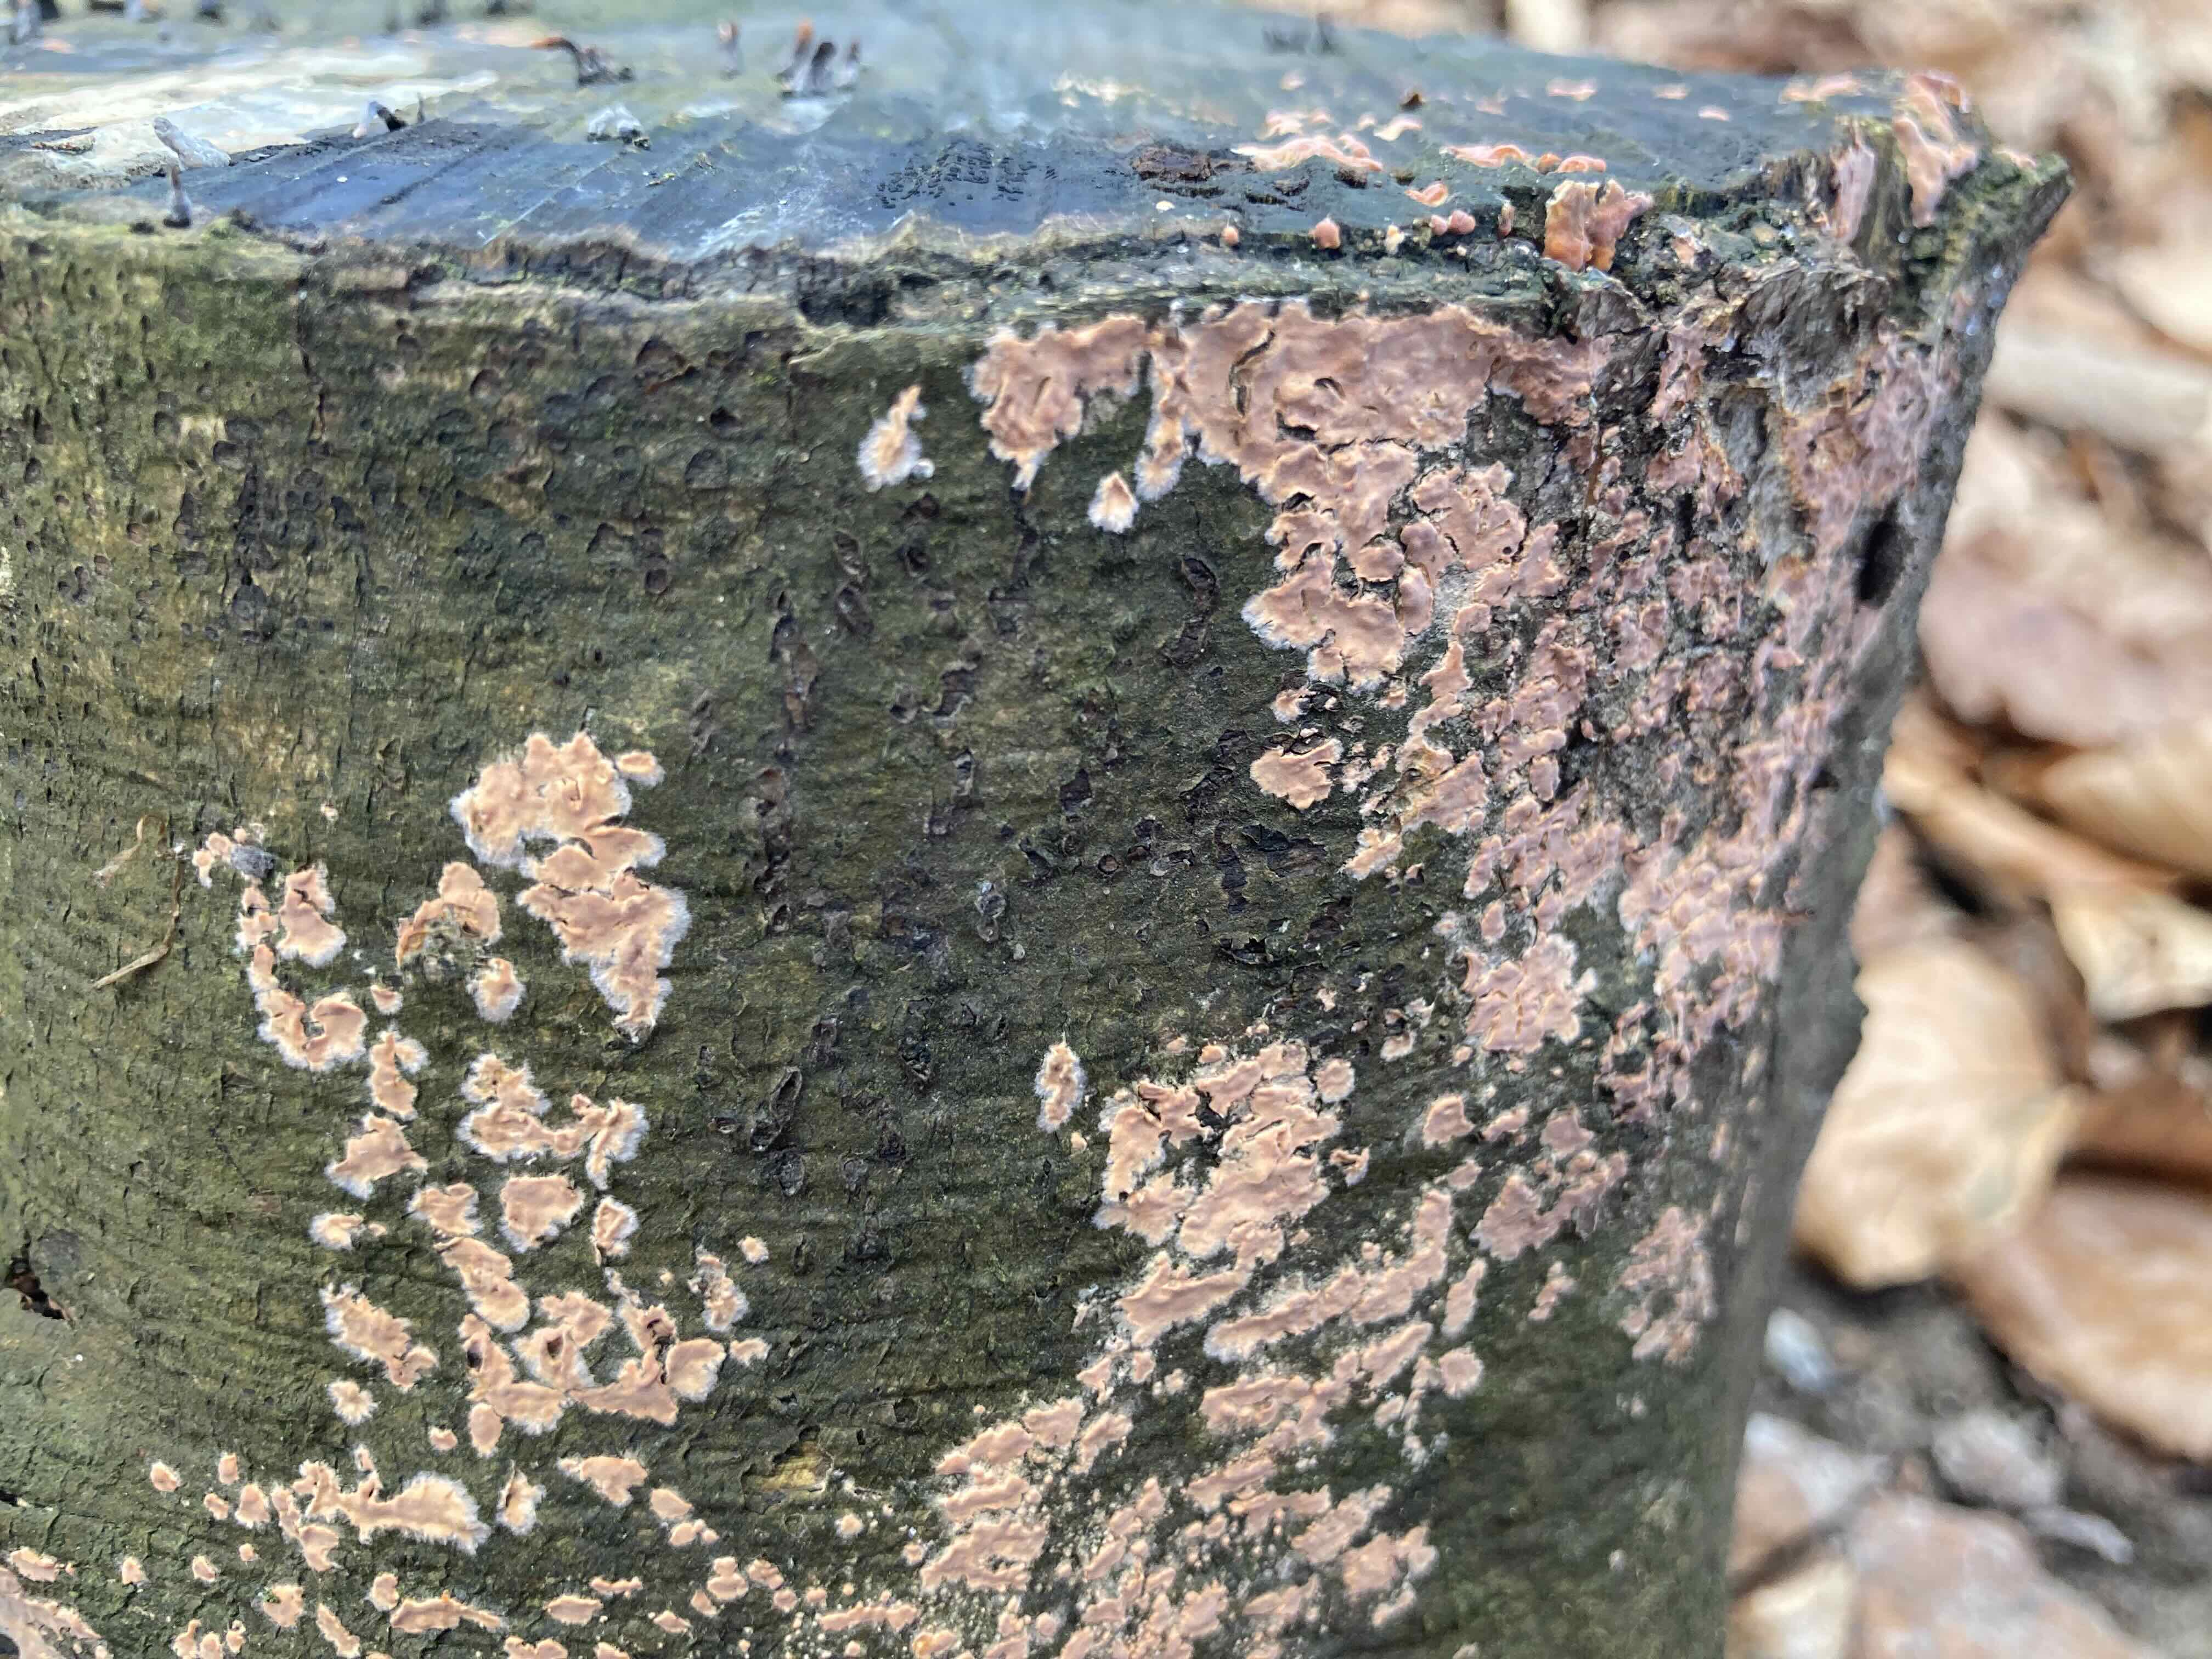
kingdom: Fungi
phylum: Basidiomycota
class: Agaricomycetes
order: Russulales
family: Peniophoraceae
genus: Peniophora
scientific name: Peniophora incarnata
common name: laksefarvet voksskind
